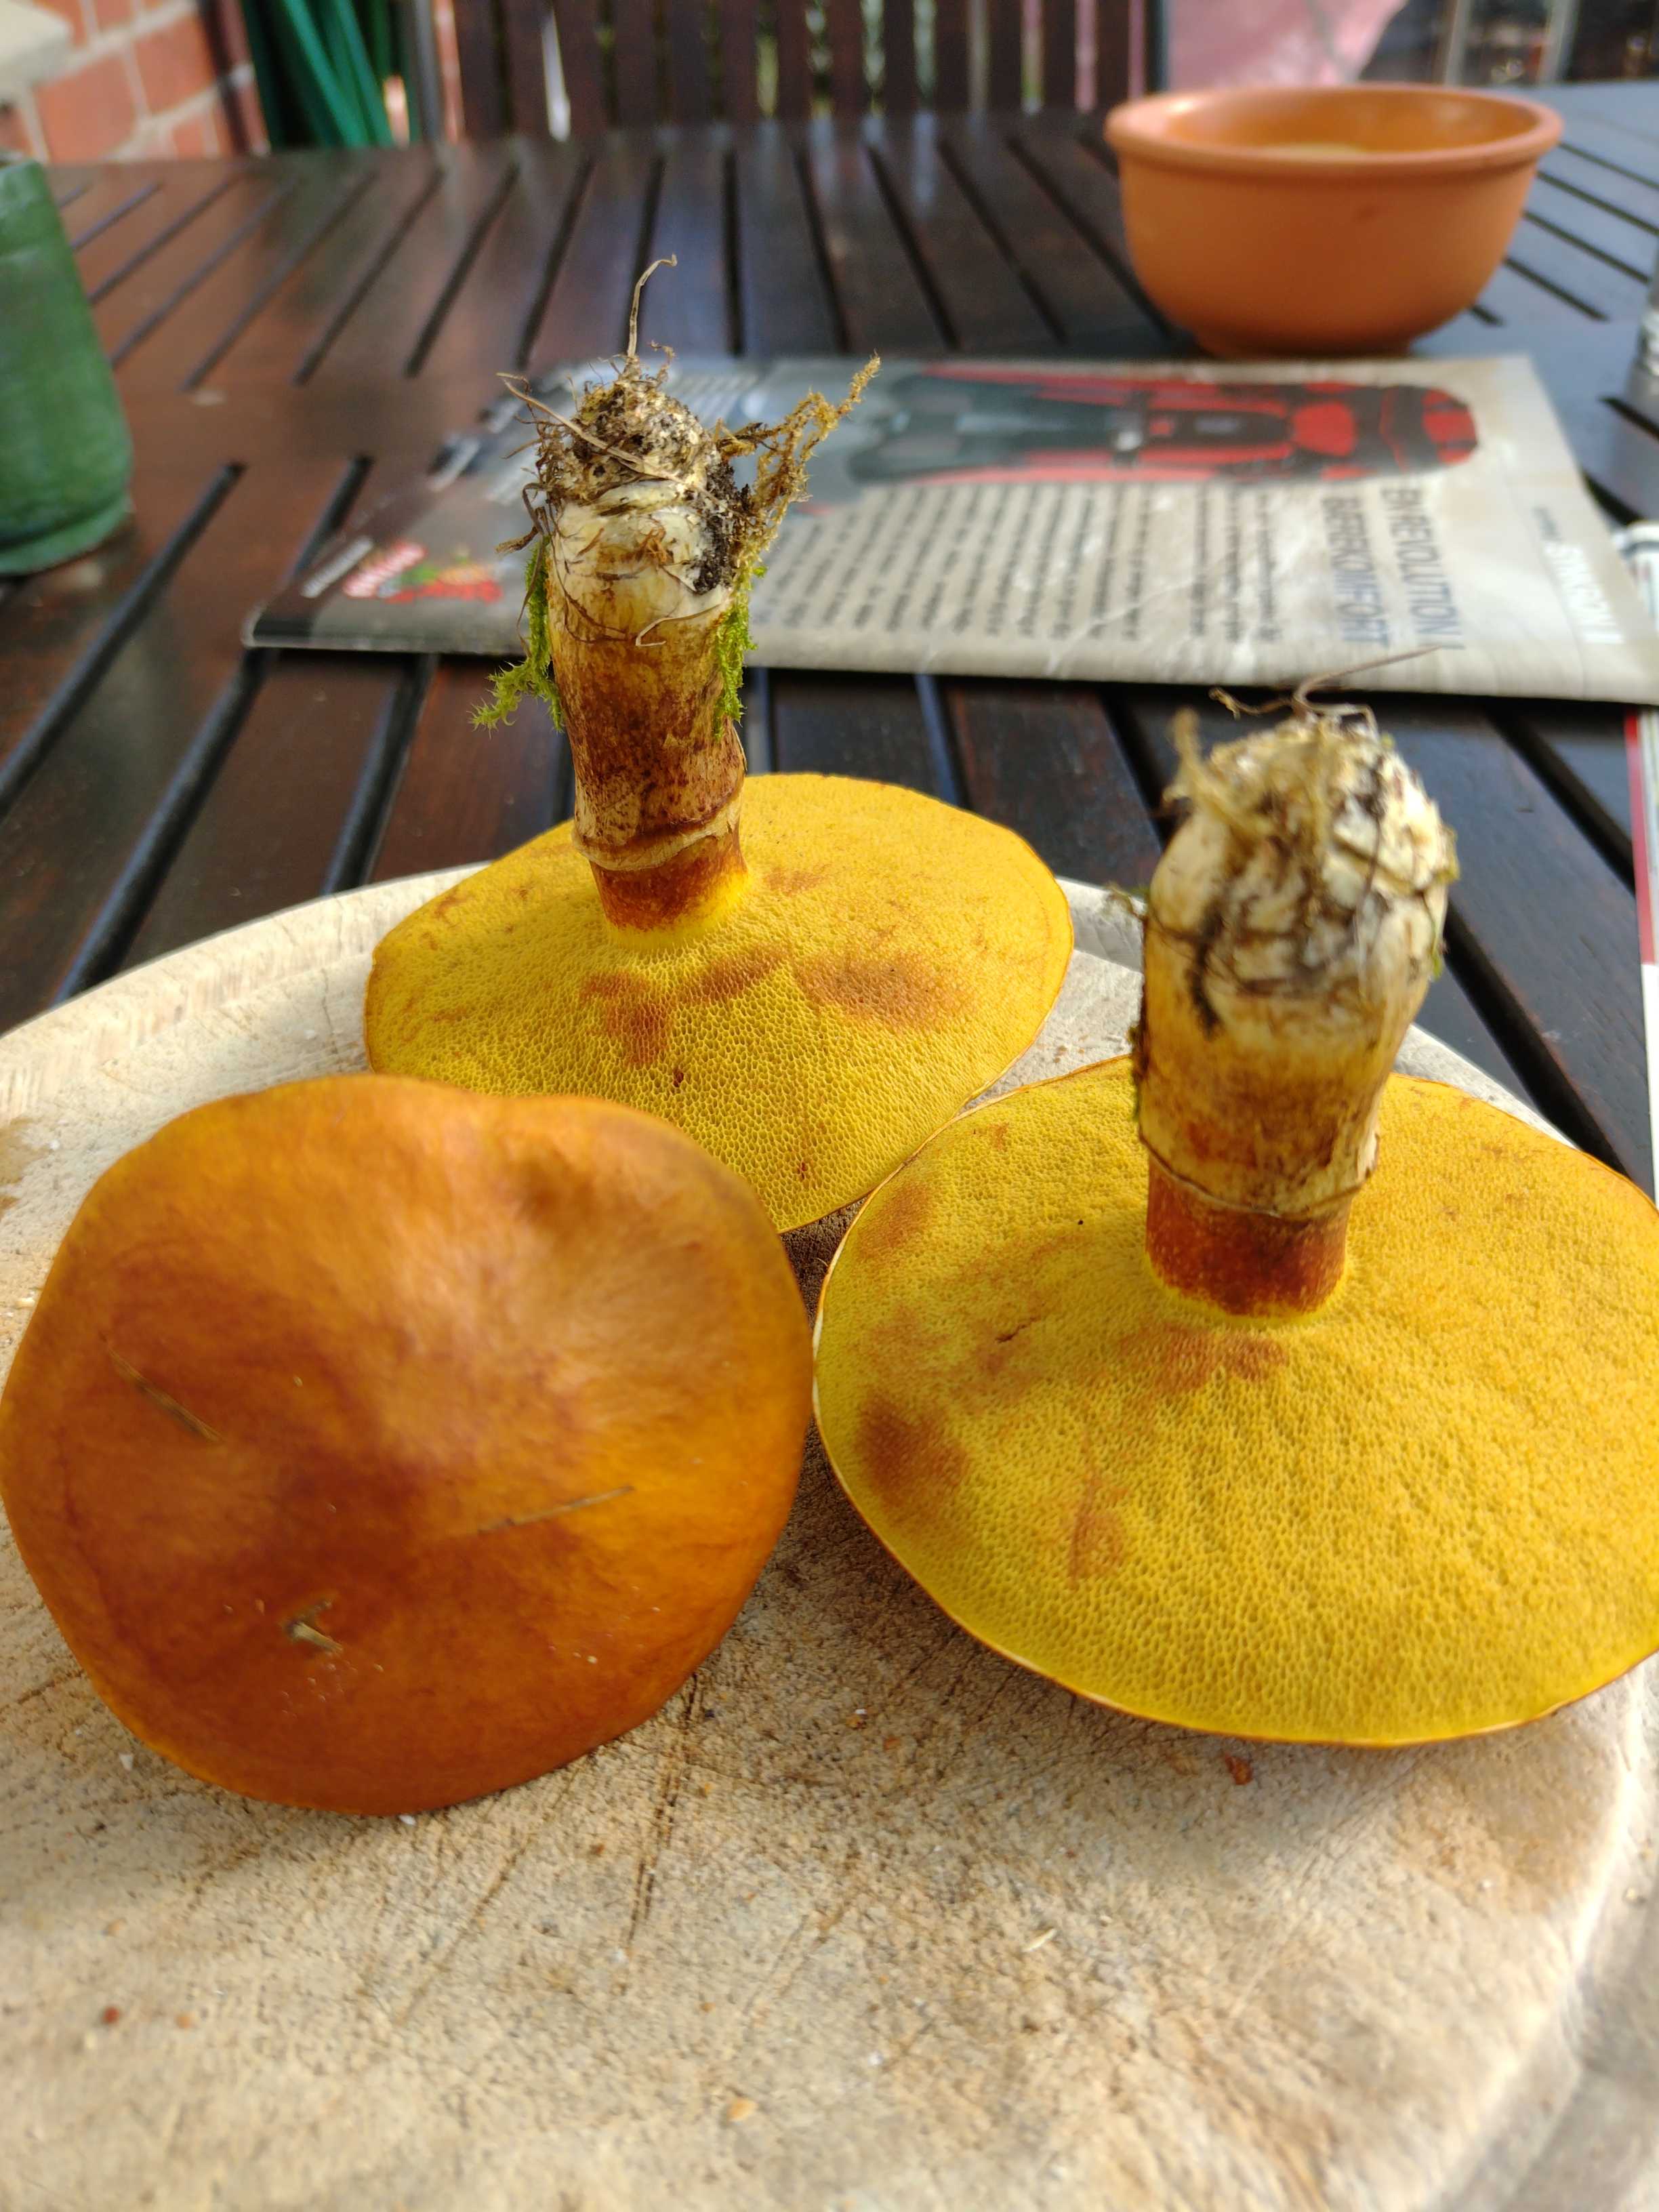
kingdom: Fungi
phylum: Basidiomycota
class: Agaricomycetes
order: Boletales
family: Suillaceae
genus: Suillus
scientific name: Suillus grevillei
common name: lærke-slimrørhat
